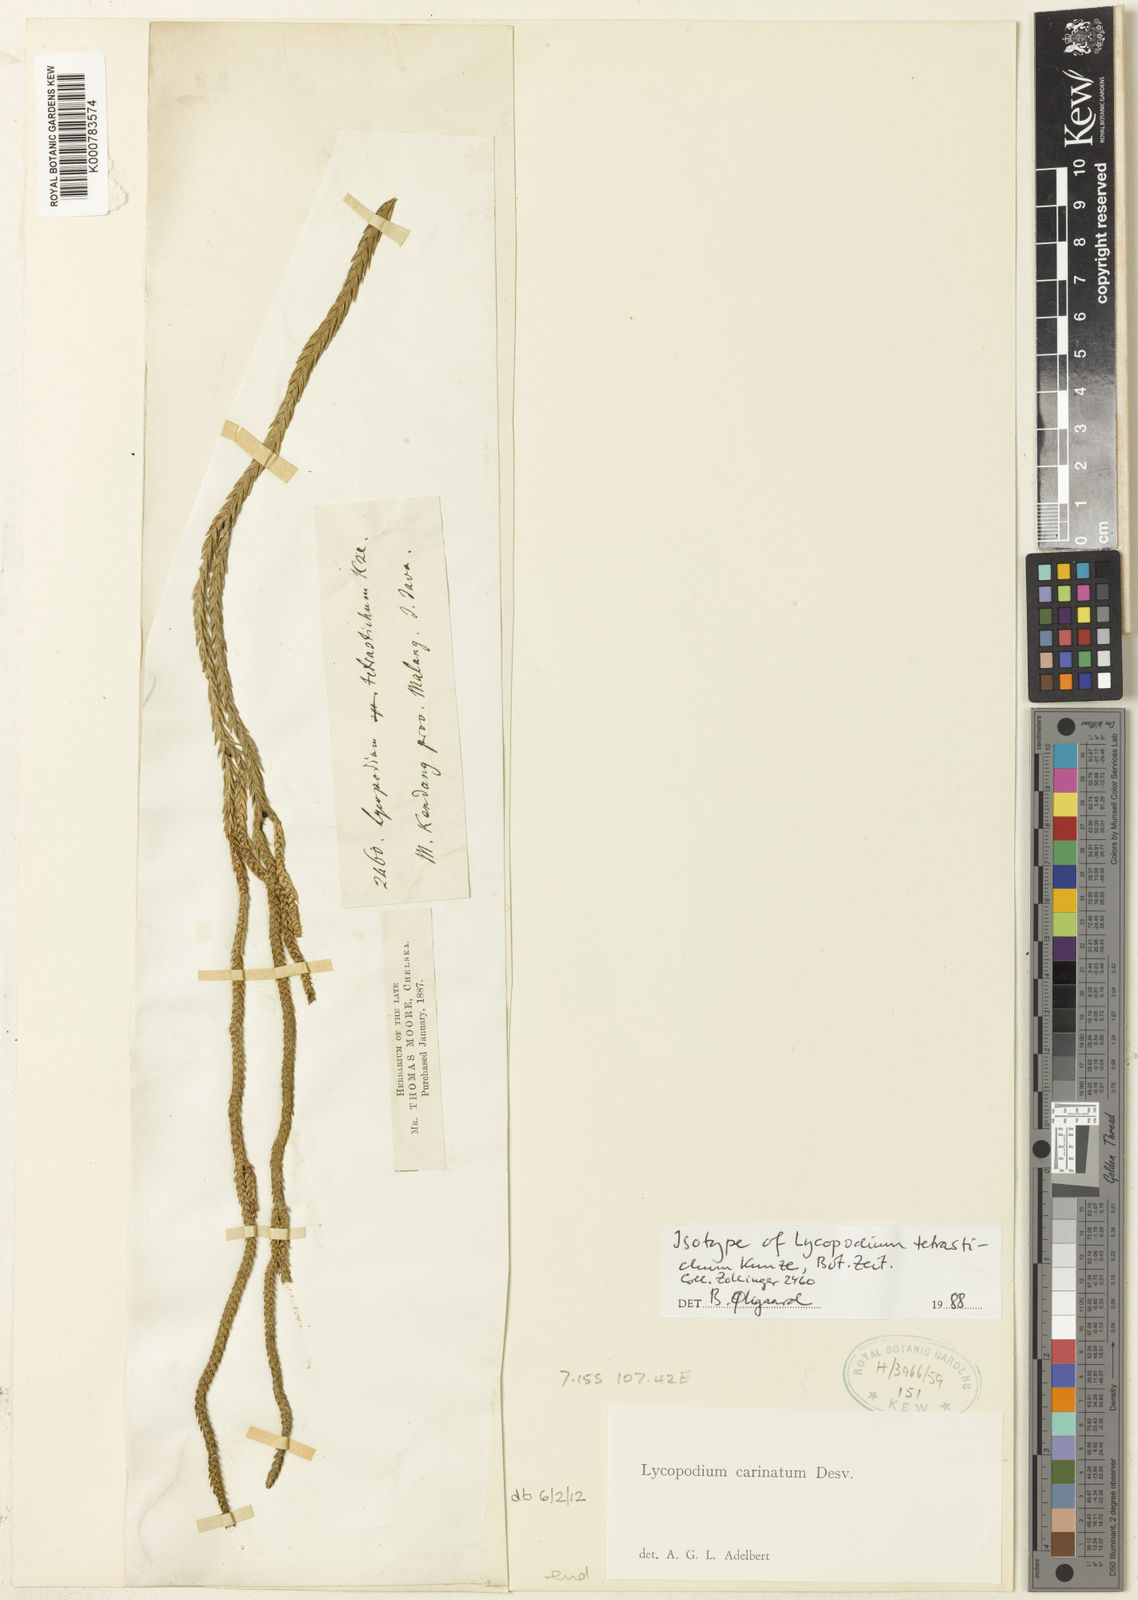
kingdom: Plantae
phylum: Tracheophyta
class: Lycopodiopsida
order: Lycopodiales
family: Lycopodiaceae
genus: Phlegmariurus
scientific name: Phlegmariurus tetrastichus
